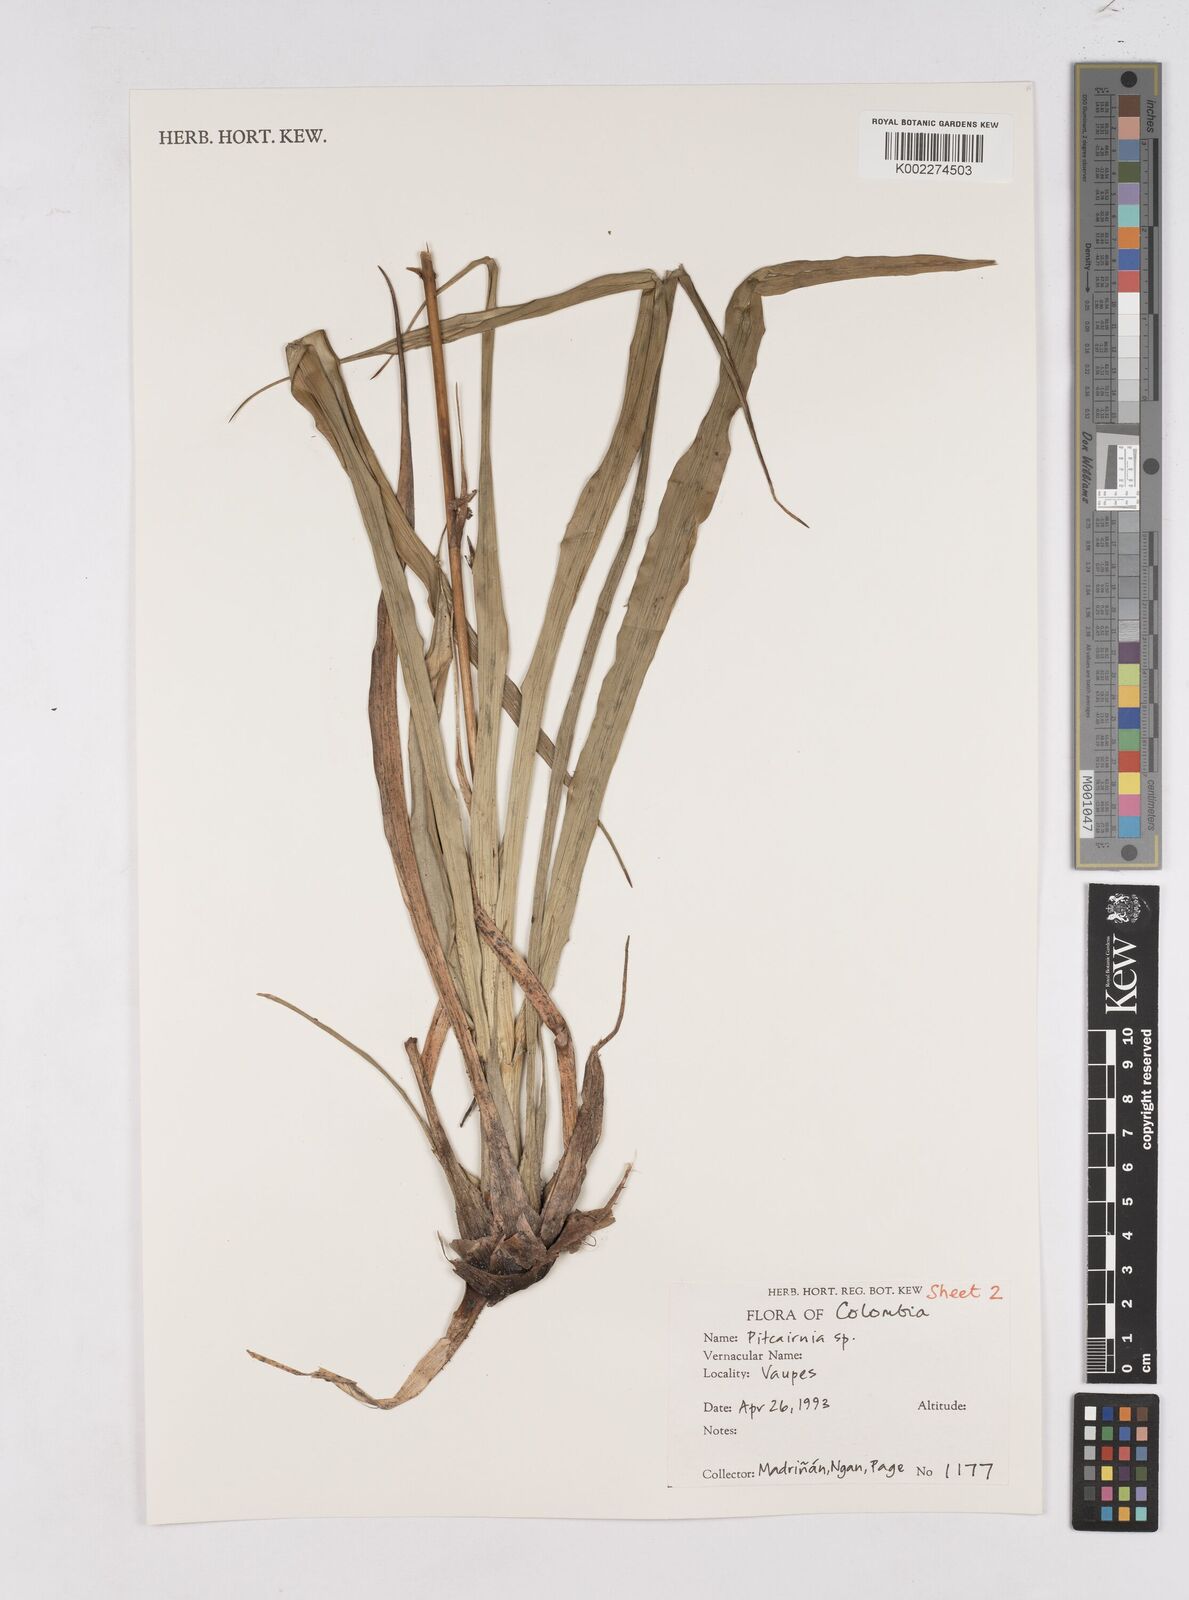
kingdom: Plantae
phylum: Tracheophyta
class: Liliopsida
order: Poales
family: Bromeliaceae
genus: Pitcairnia
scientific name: Pitcairnia
